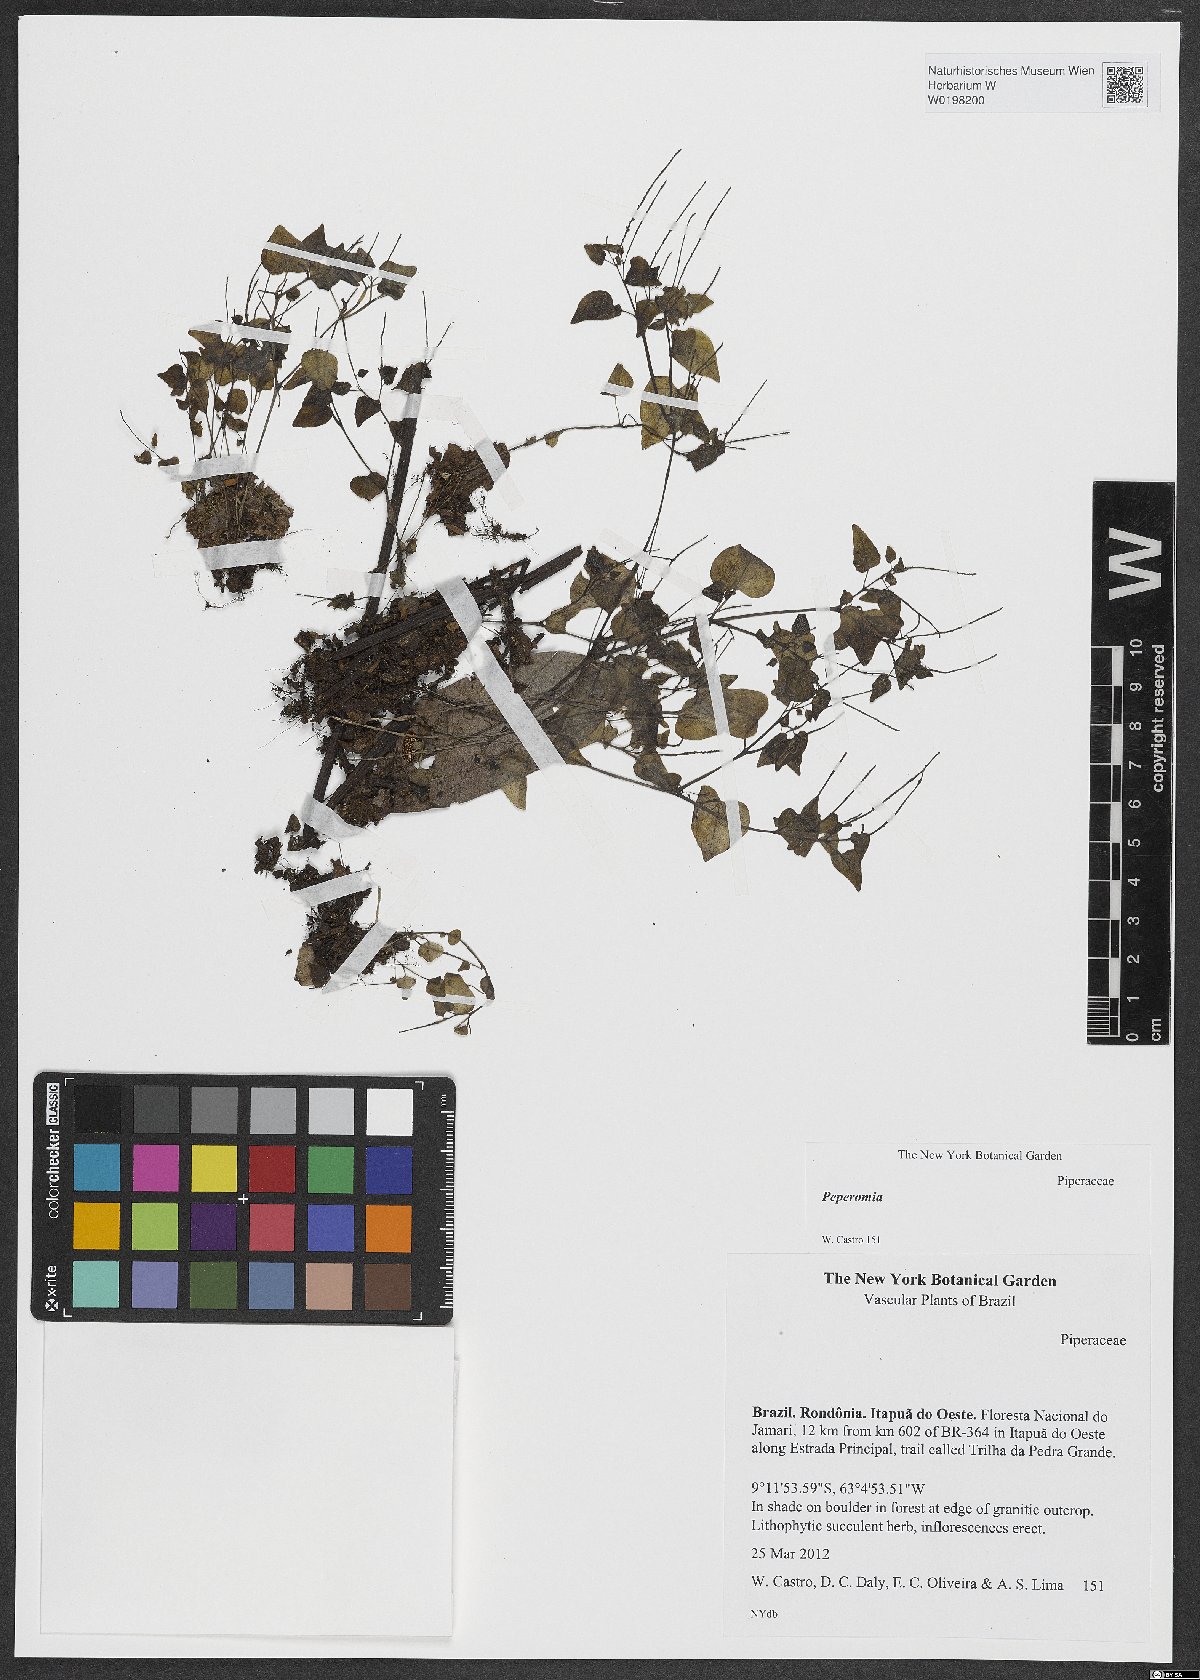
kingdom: Plantae
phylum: Tracheophyta
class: Magnoliopsida
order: Piperales
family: Piperaceae
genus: Peperomia
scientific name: Peperomia
